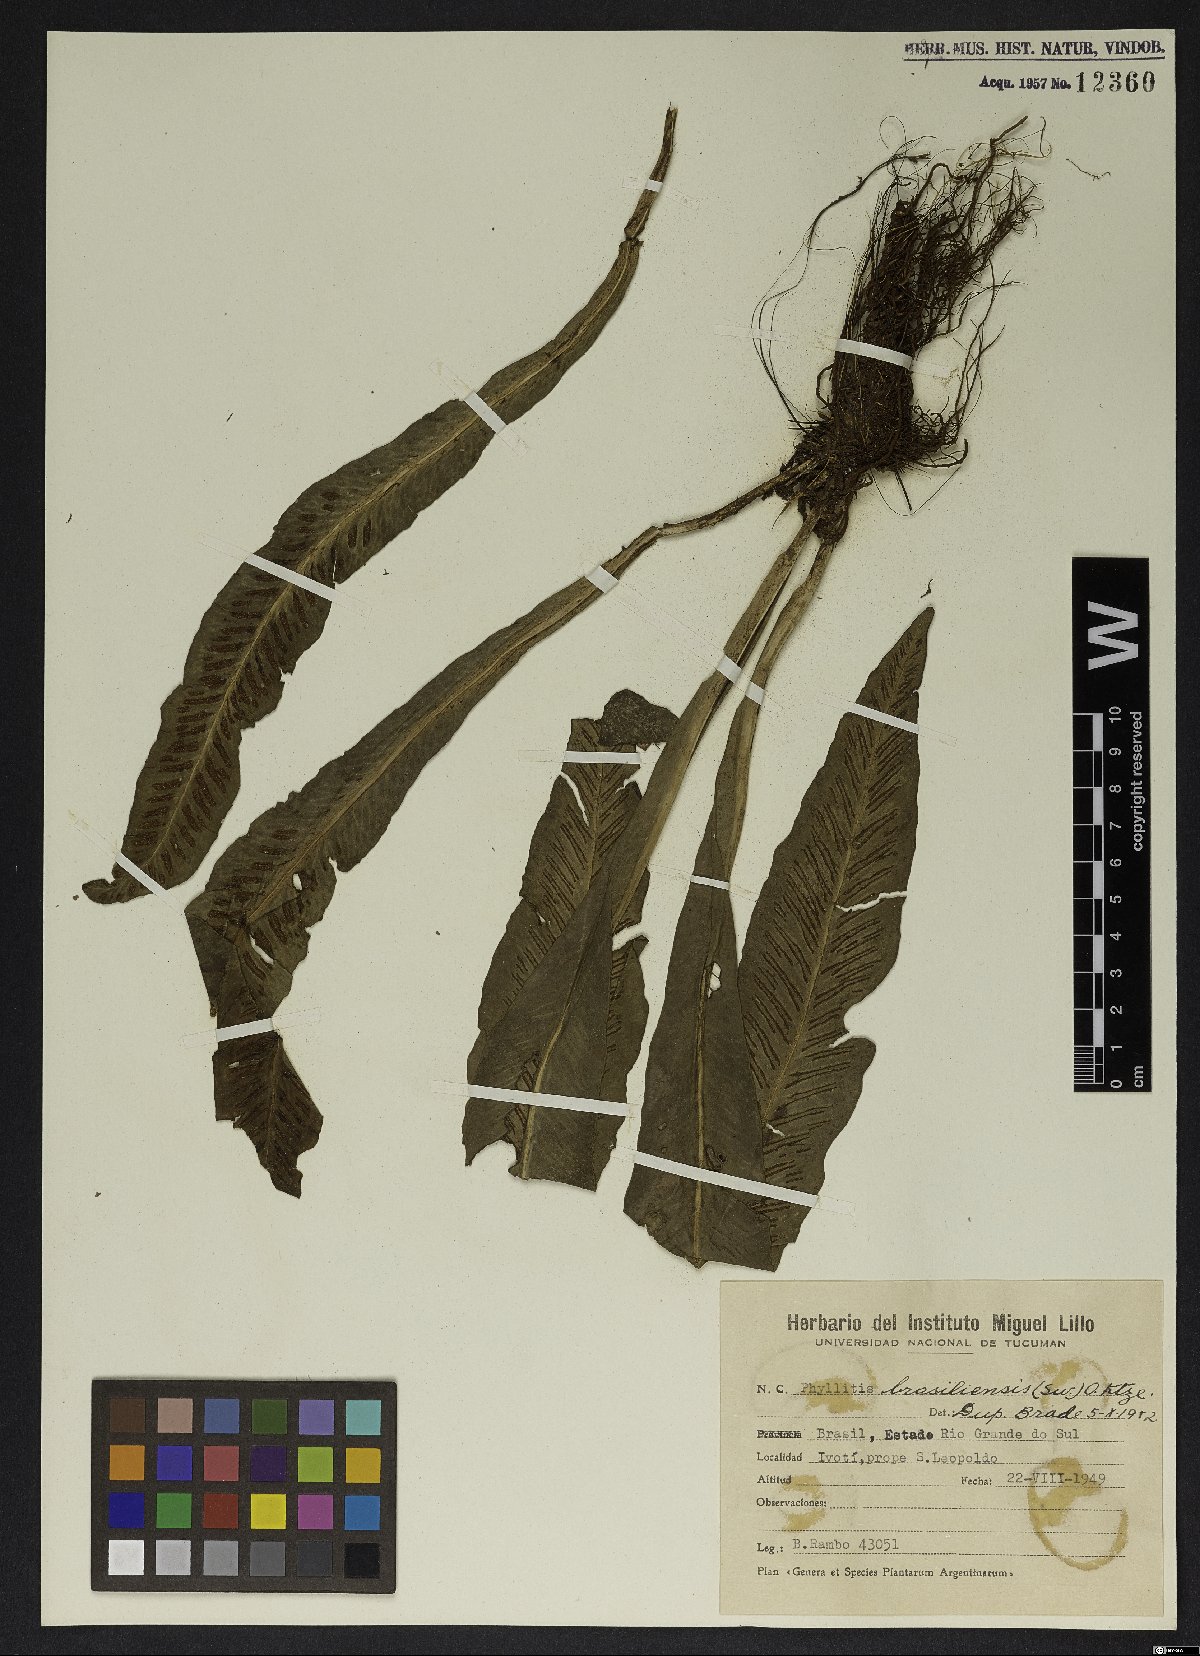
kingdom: Plantae
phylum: Tracheophyta
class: Polypodiopsida
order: Polypodiales
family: Aspleniaceae
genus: Asplenium
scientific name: Asplenium brasiliense
